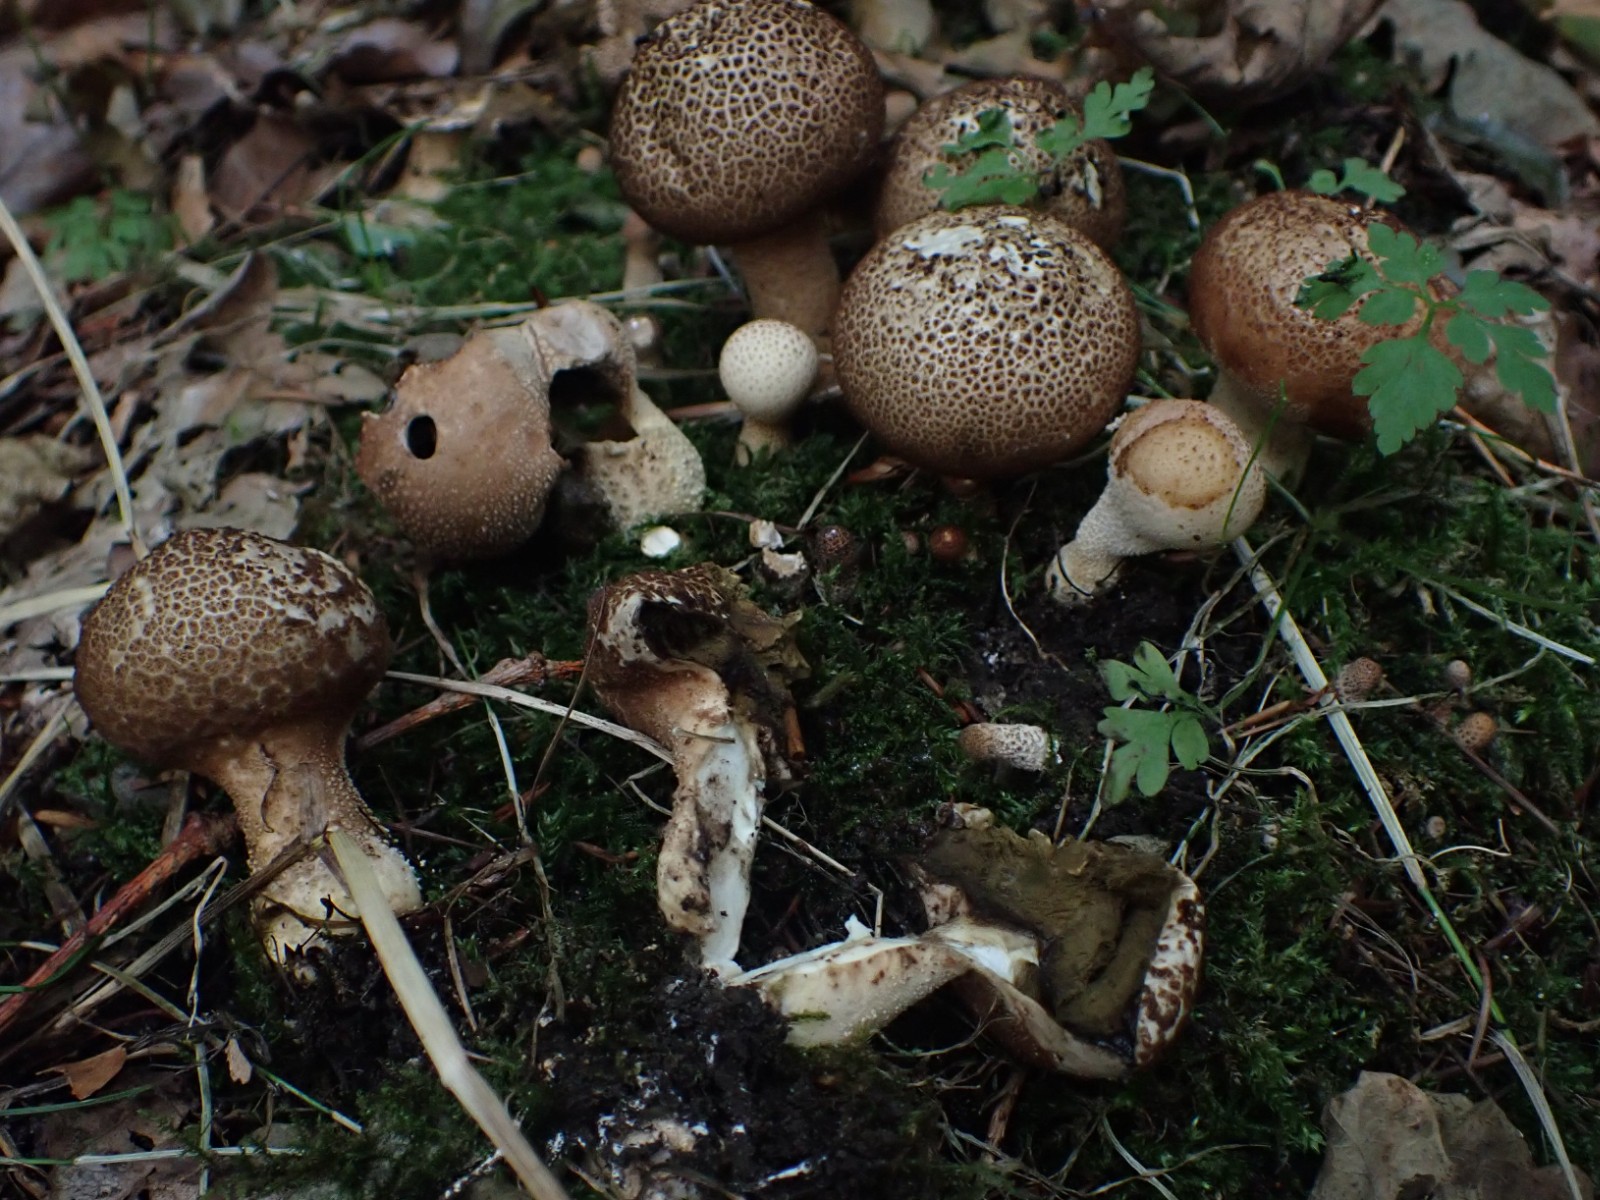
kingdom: Fungi
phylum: Basidiomycota
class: Agaricomycetes
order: Agaricales
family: Agaricaceae
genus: Lycoperdon
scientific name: Lycoperdon
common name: støvbold
